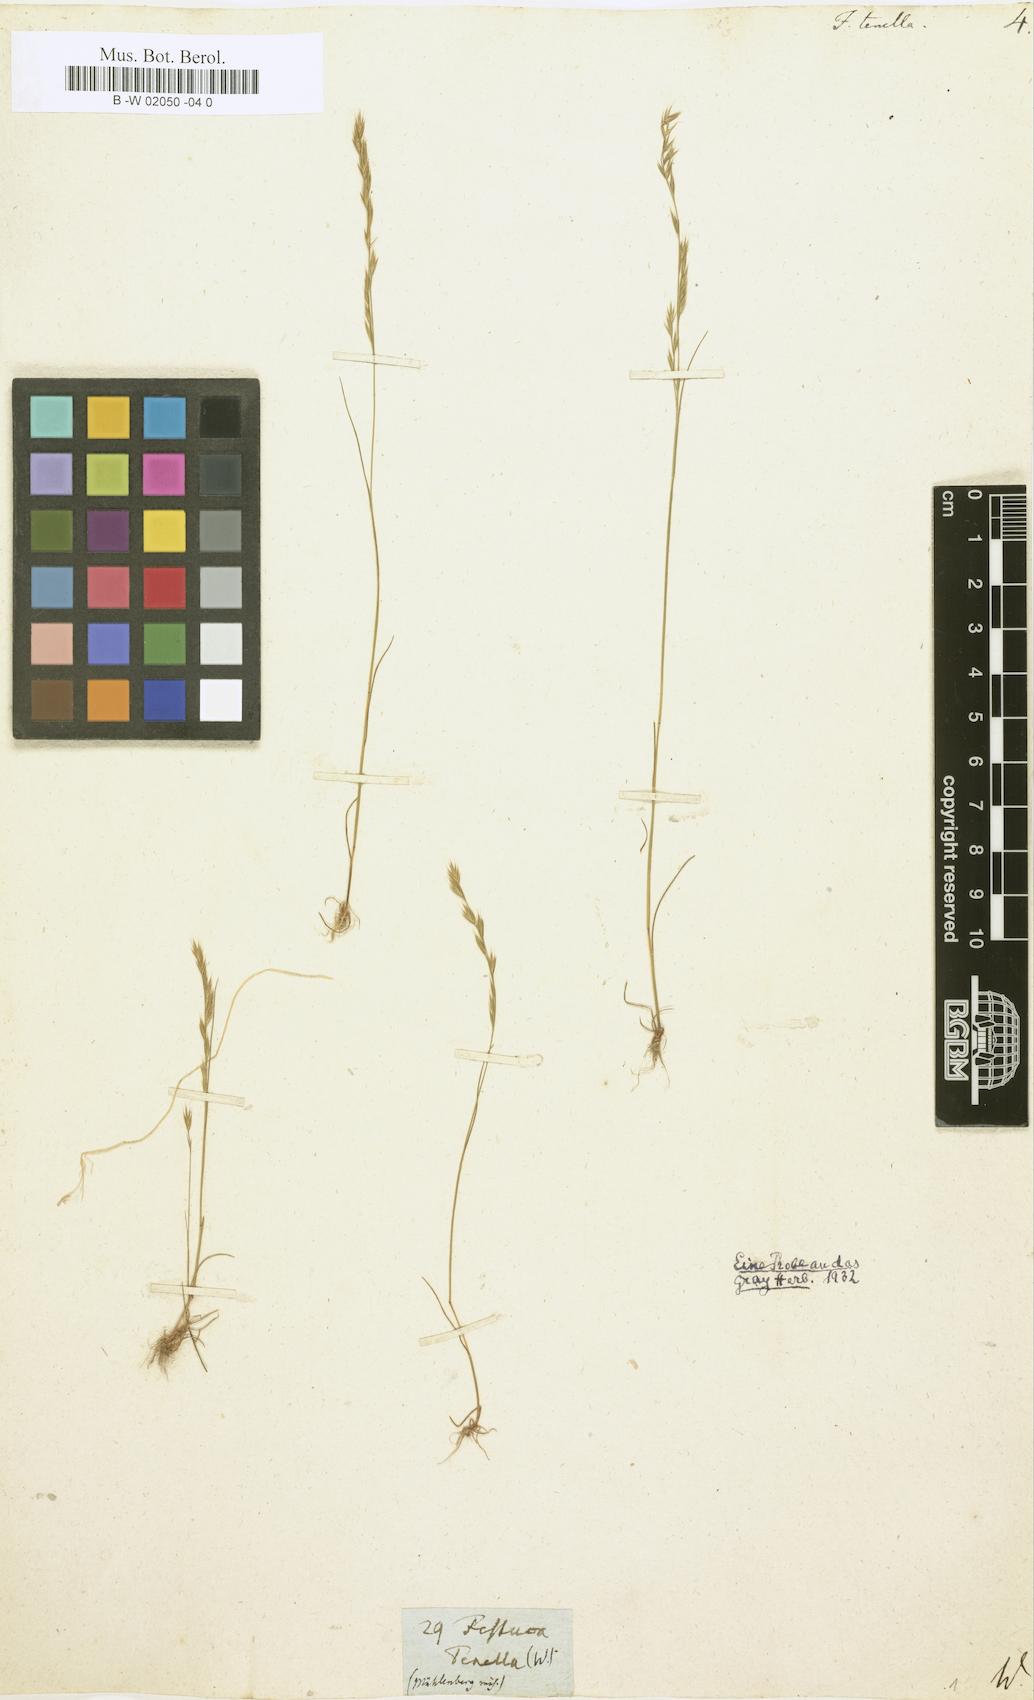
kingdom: Plantae
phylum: Tracheophyta
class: Liliopsida
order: Poales
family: Poaceae
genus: Festuca
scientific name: Festuca octoflora
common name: Sixweeks grass
